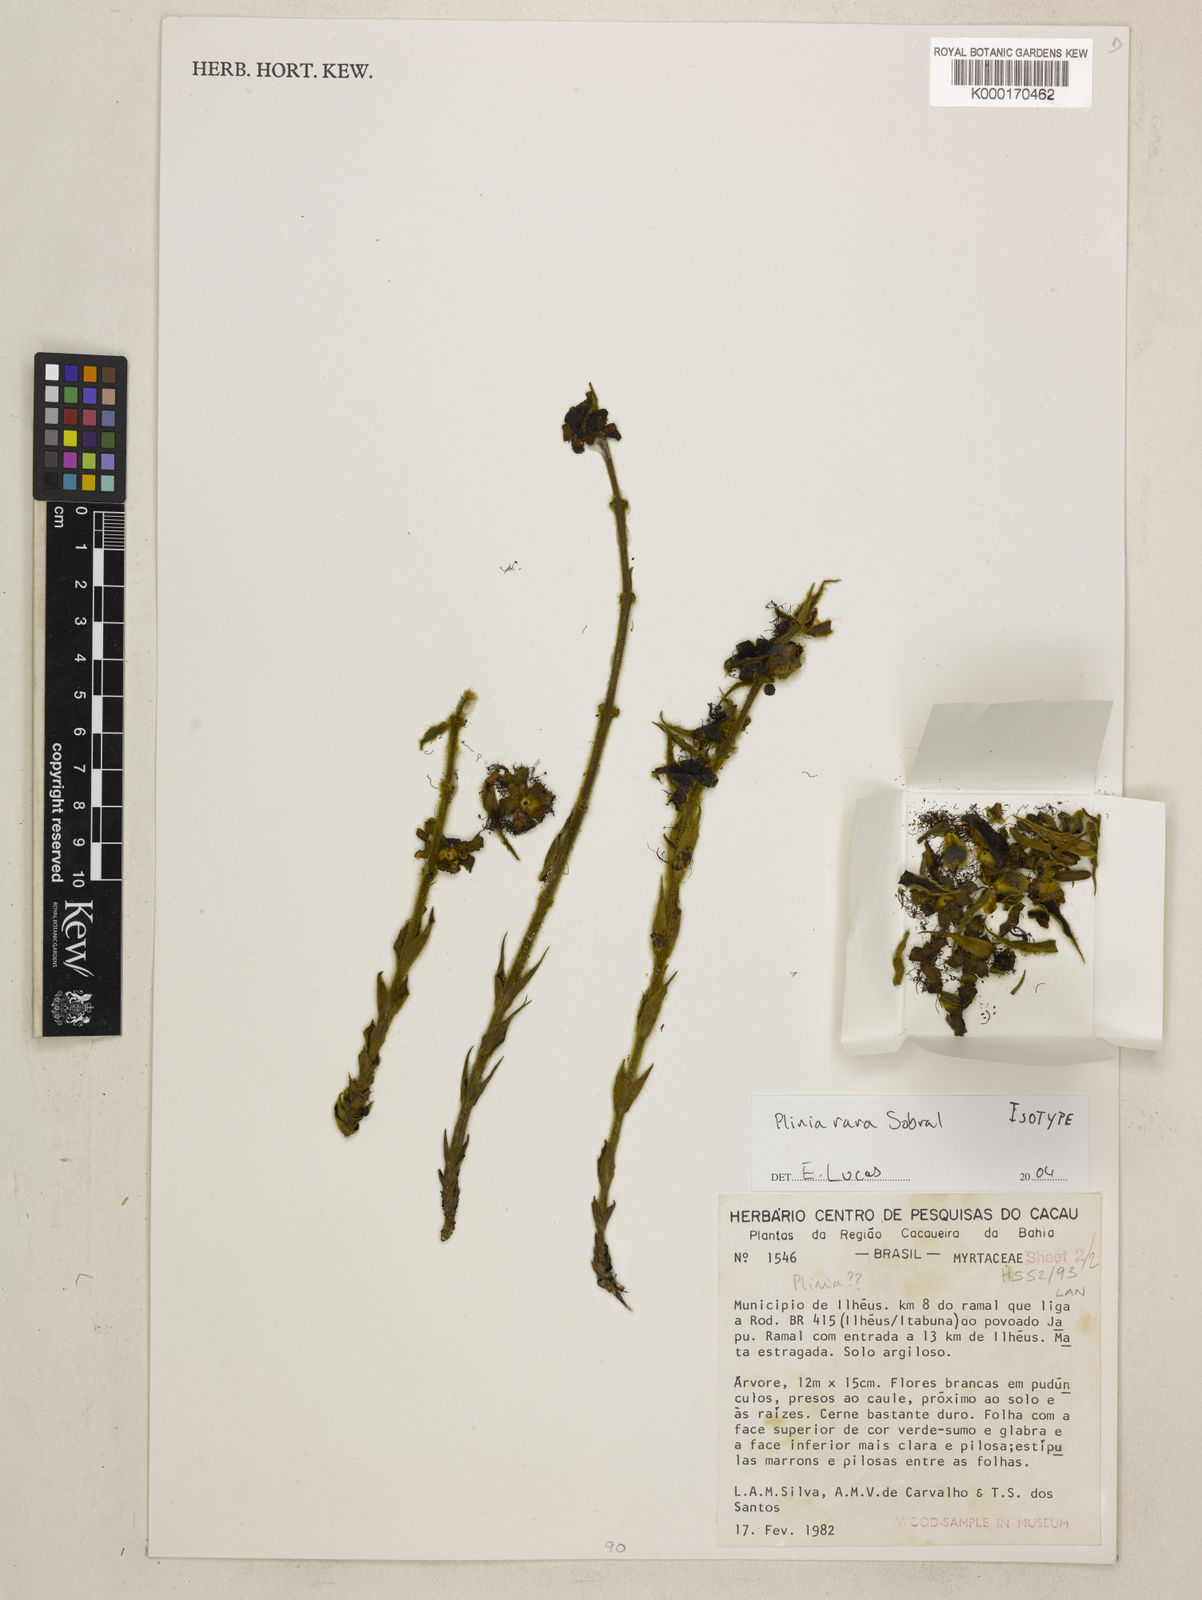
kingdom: Plantae
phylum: Tracheophyta
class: Magnoliopsida
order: Myrtales
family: Myrtaceae
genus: Plinia
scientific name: Plinia rara
